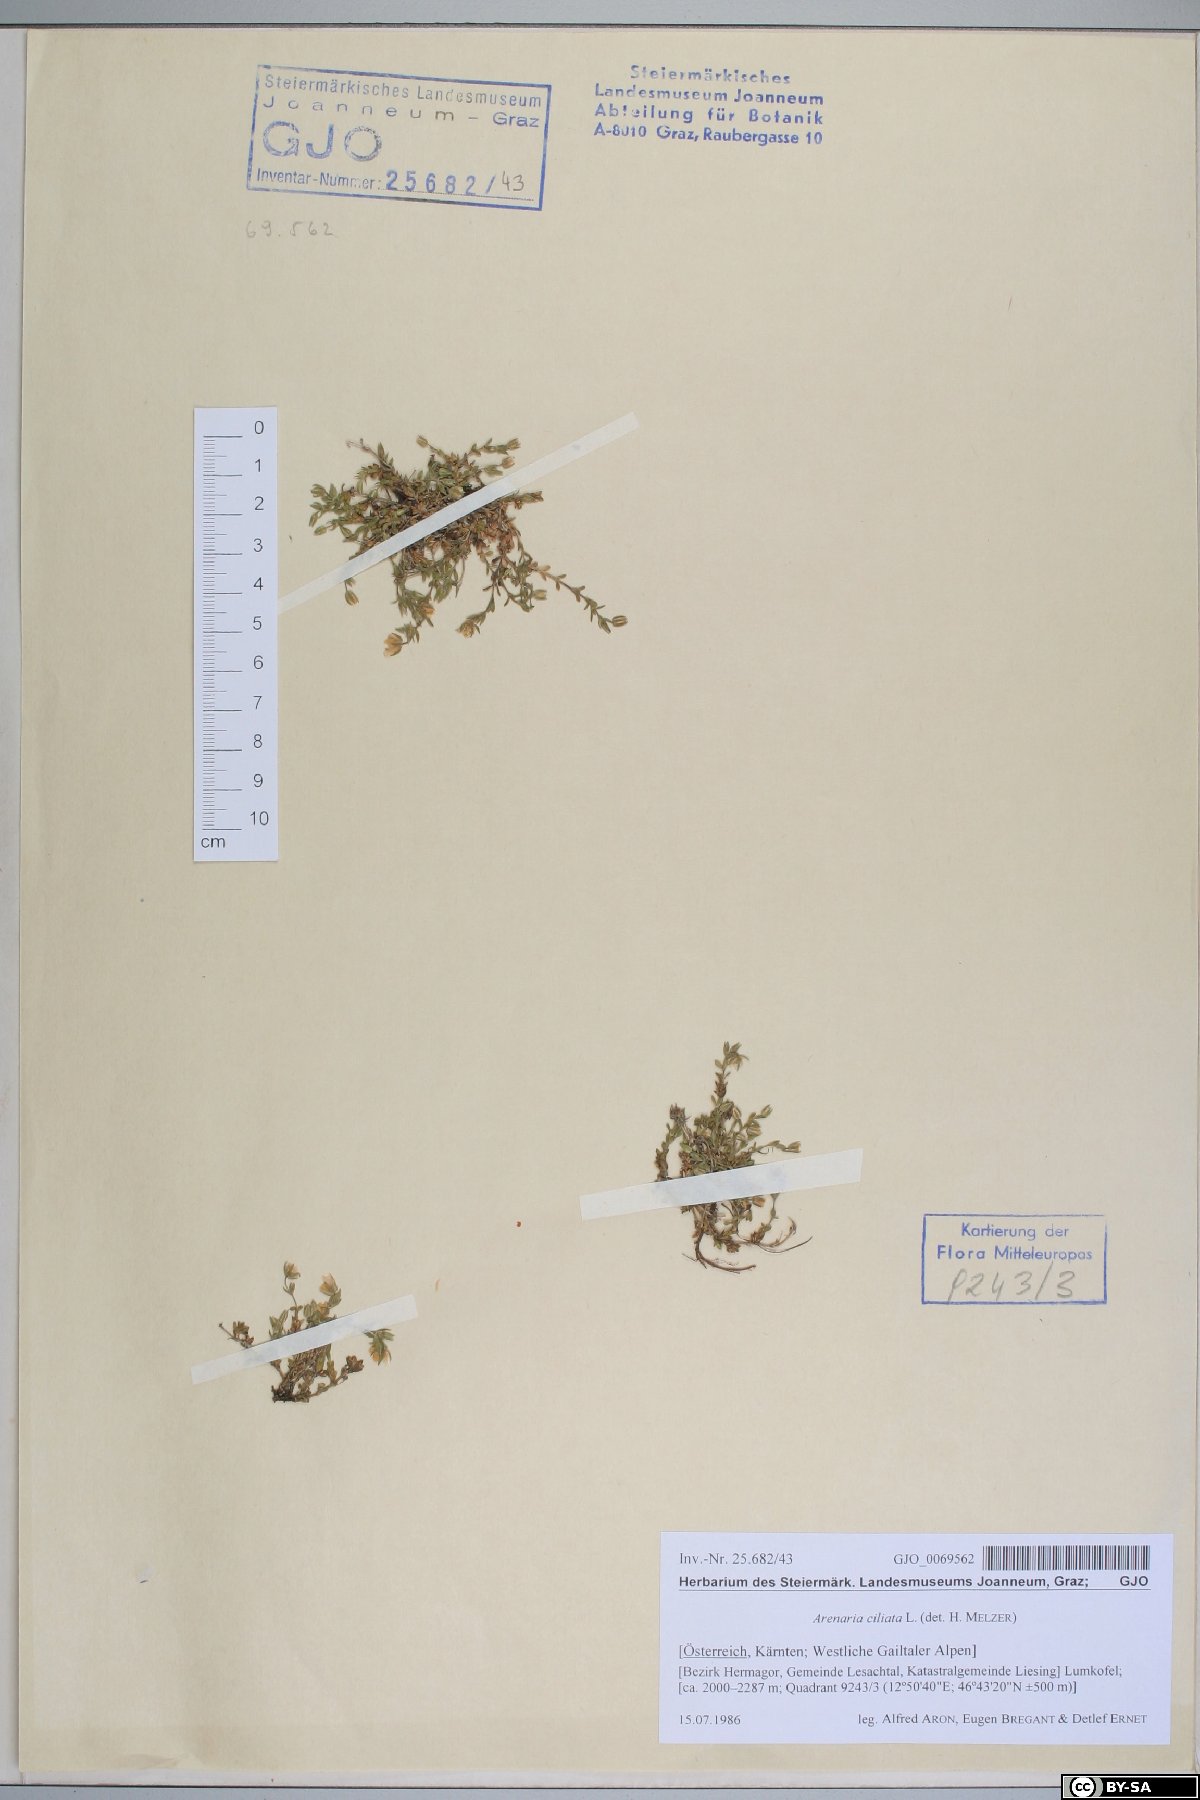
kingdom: Plantae
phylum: Tracheophyta
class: Magnoliopsida
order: Caryophyllales
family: Caryophyllaceae
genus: Arenaria
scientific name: Arenaria ciliata
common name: Fringed sandwort
